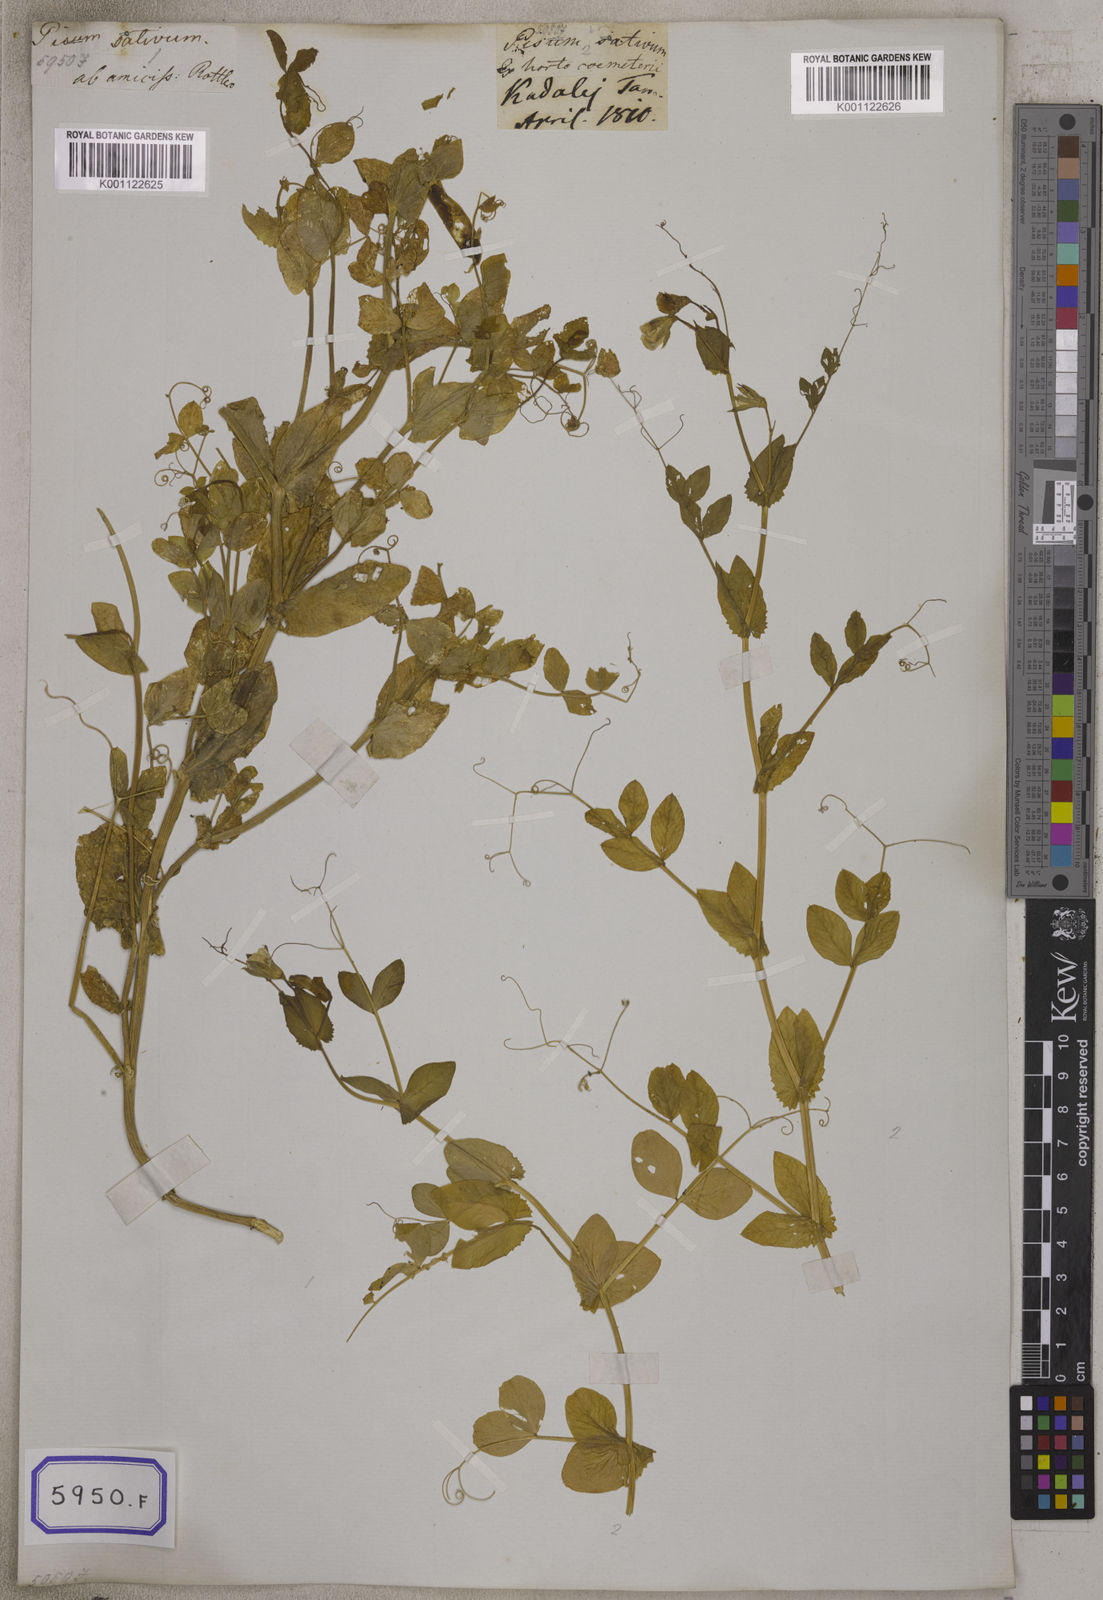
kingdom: Plantae
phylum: Tracheophyta
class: Magnoliopsida
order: Fabales
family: Fabaceae
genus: Lathyrus
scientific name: Lathyrus oleraceus
